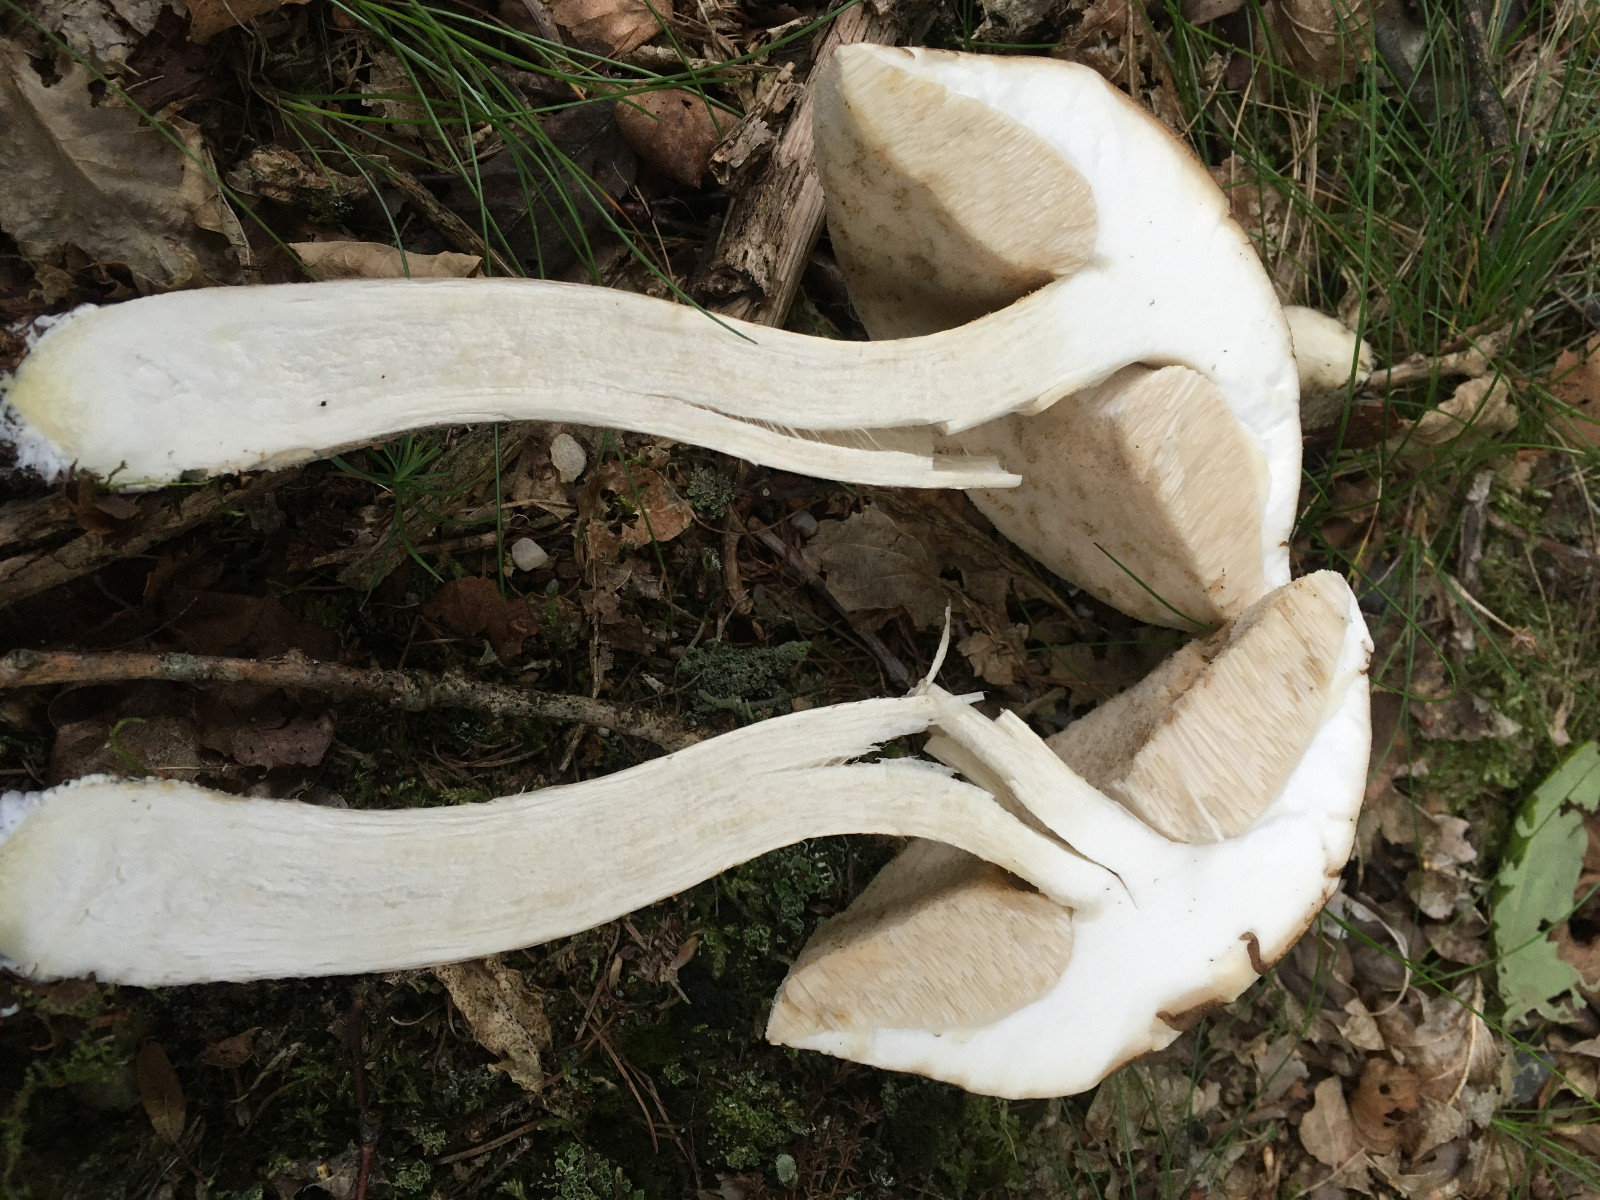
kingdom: Fungi
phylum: Basidiomycota
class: Agaricomycetes
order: Boletales
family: Boletaceae
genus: Leccinum
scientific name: Leccinum scabrum
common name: brun skælrørhat
